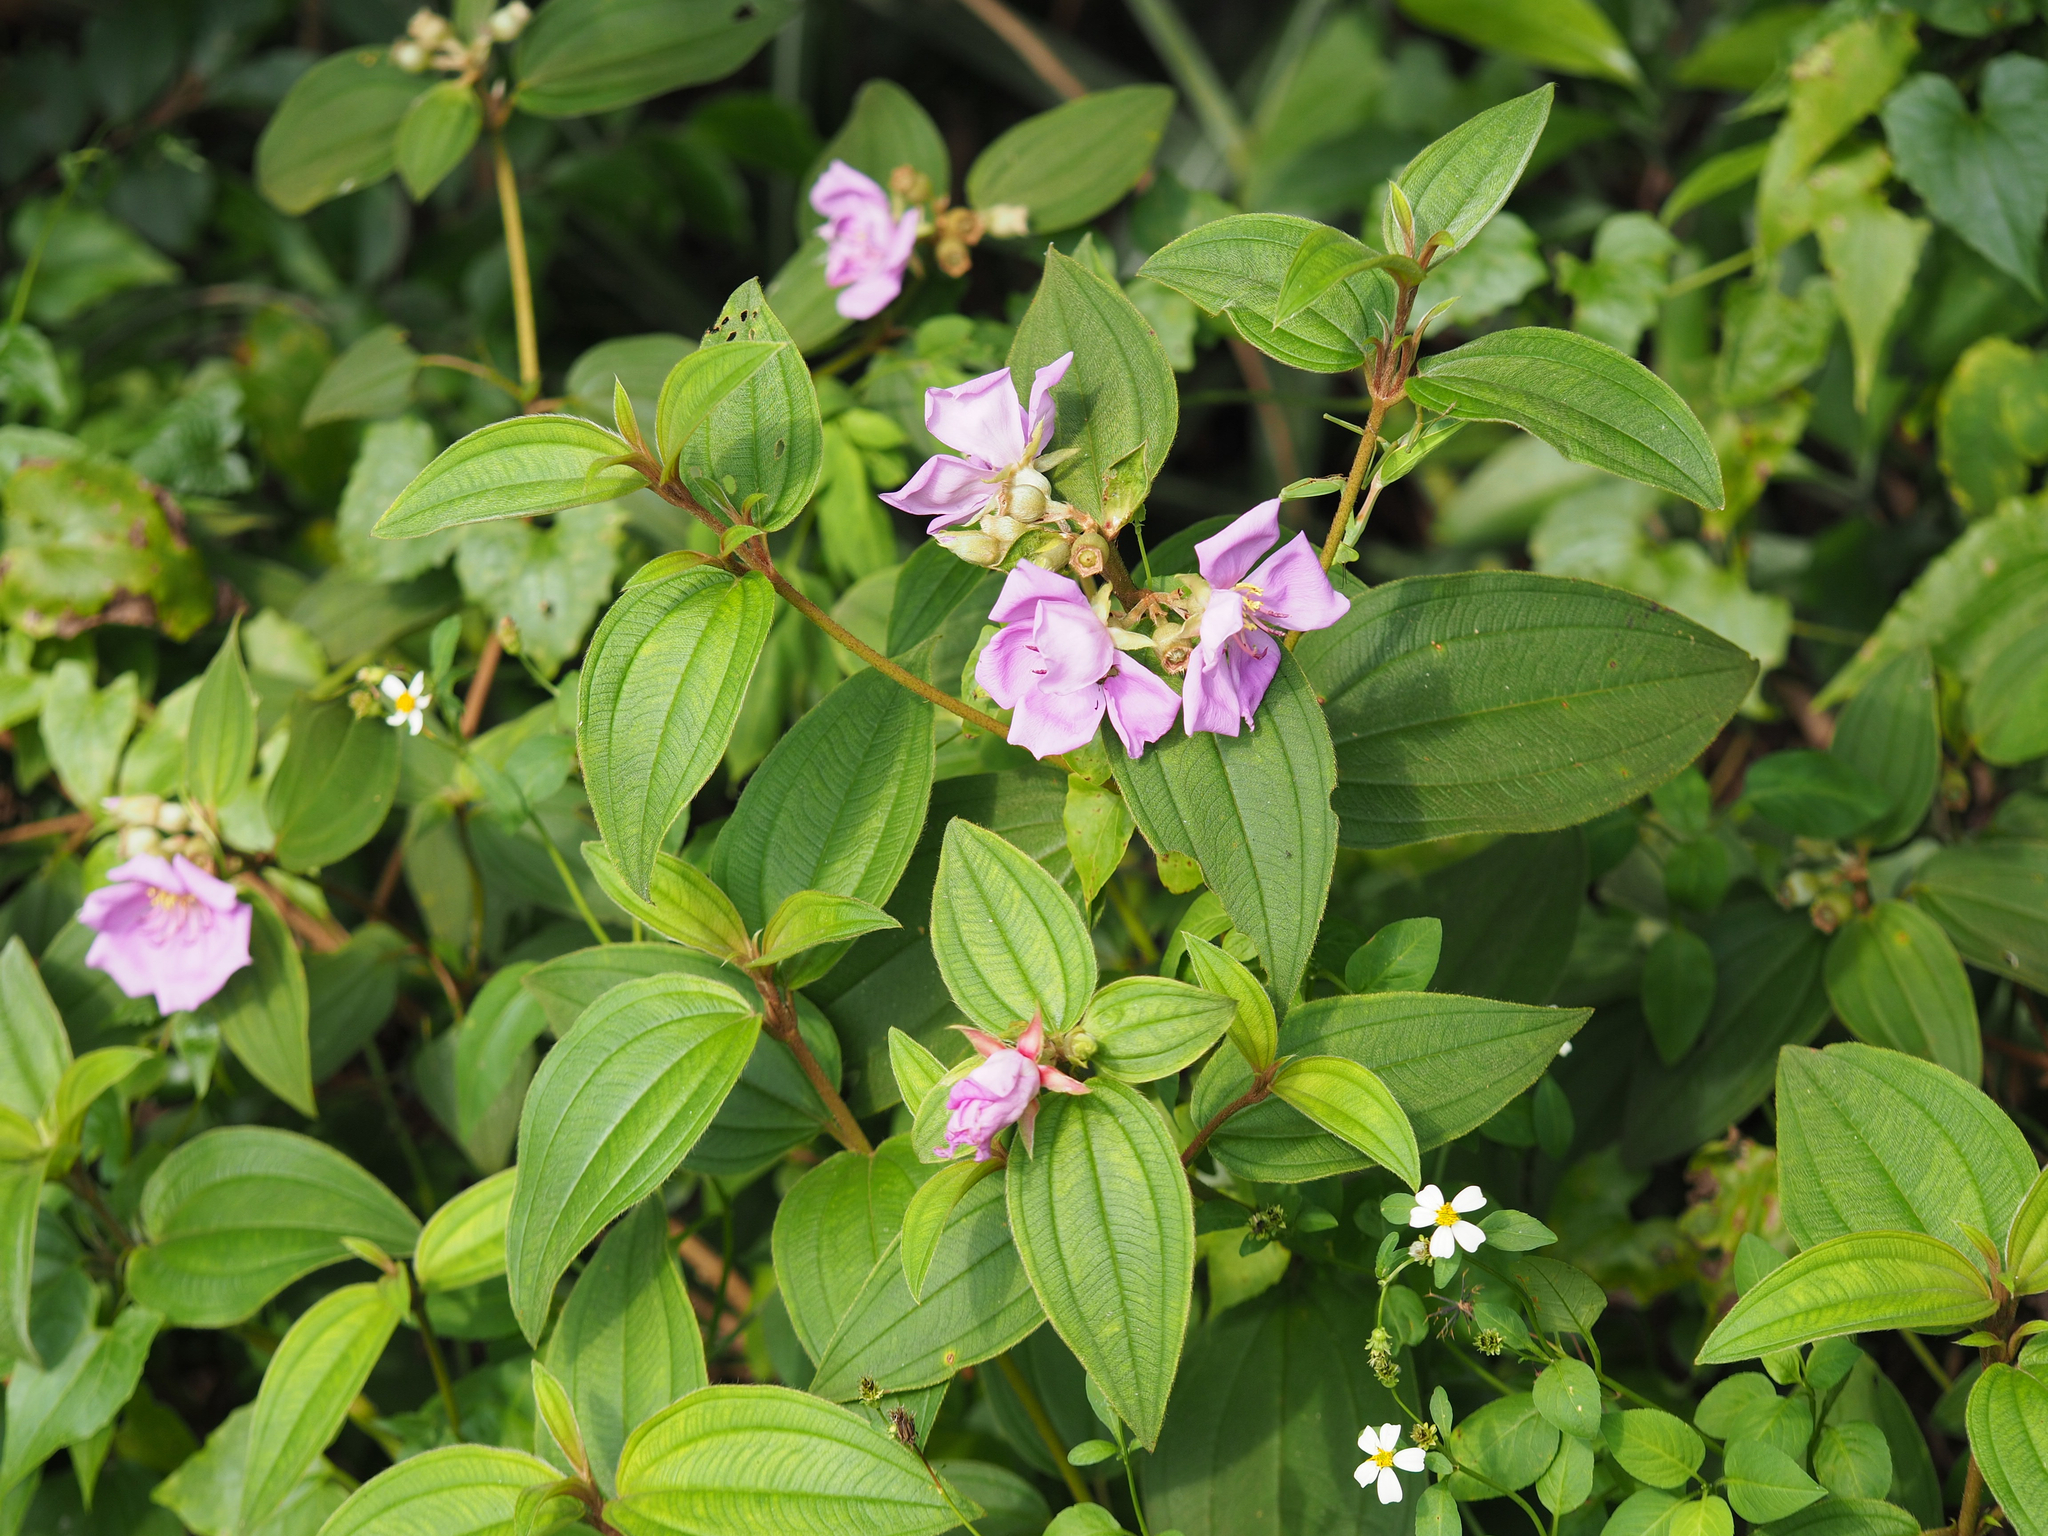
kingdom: Plantae
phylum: Tracheophyta
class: Magnoliopsida
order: Myrtales
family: Melastomataceae
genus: Melastoma
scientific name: Melastoma malabathricum
